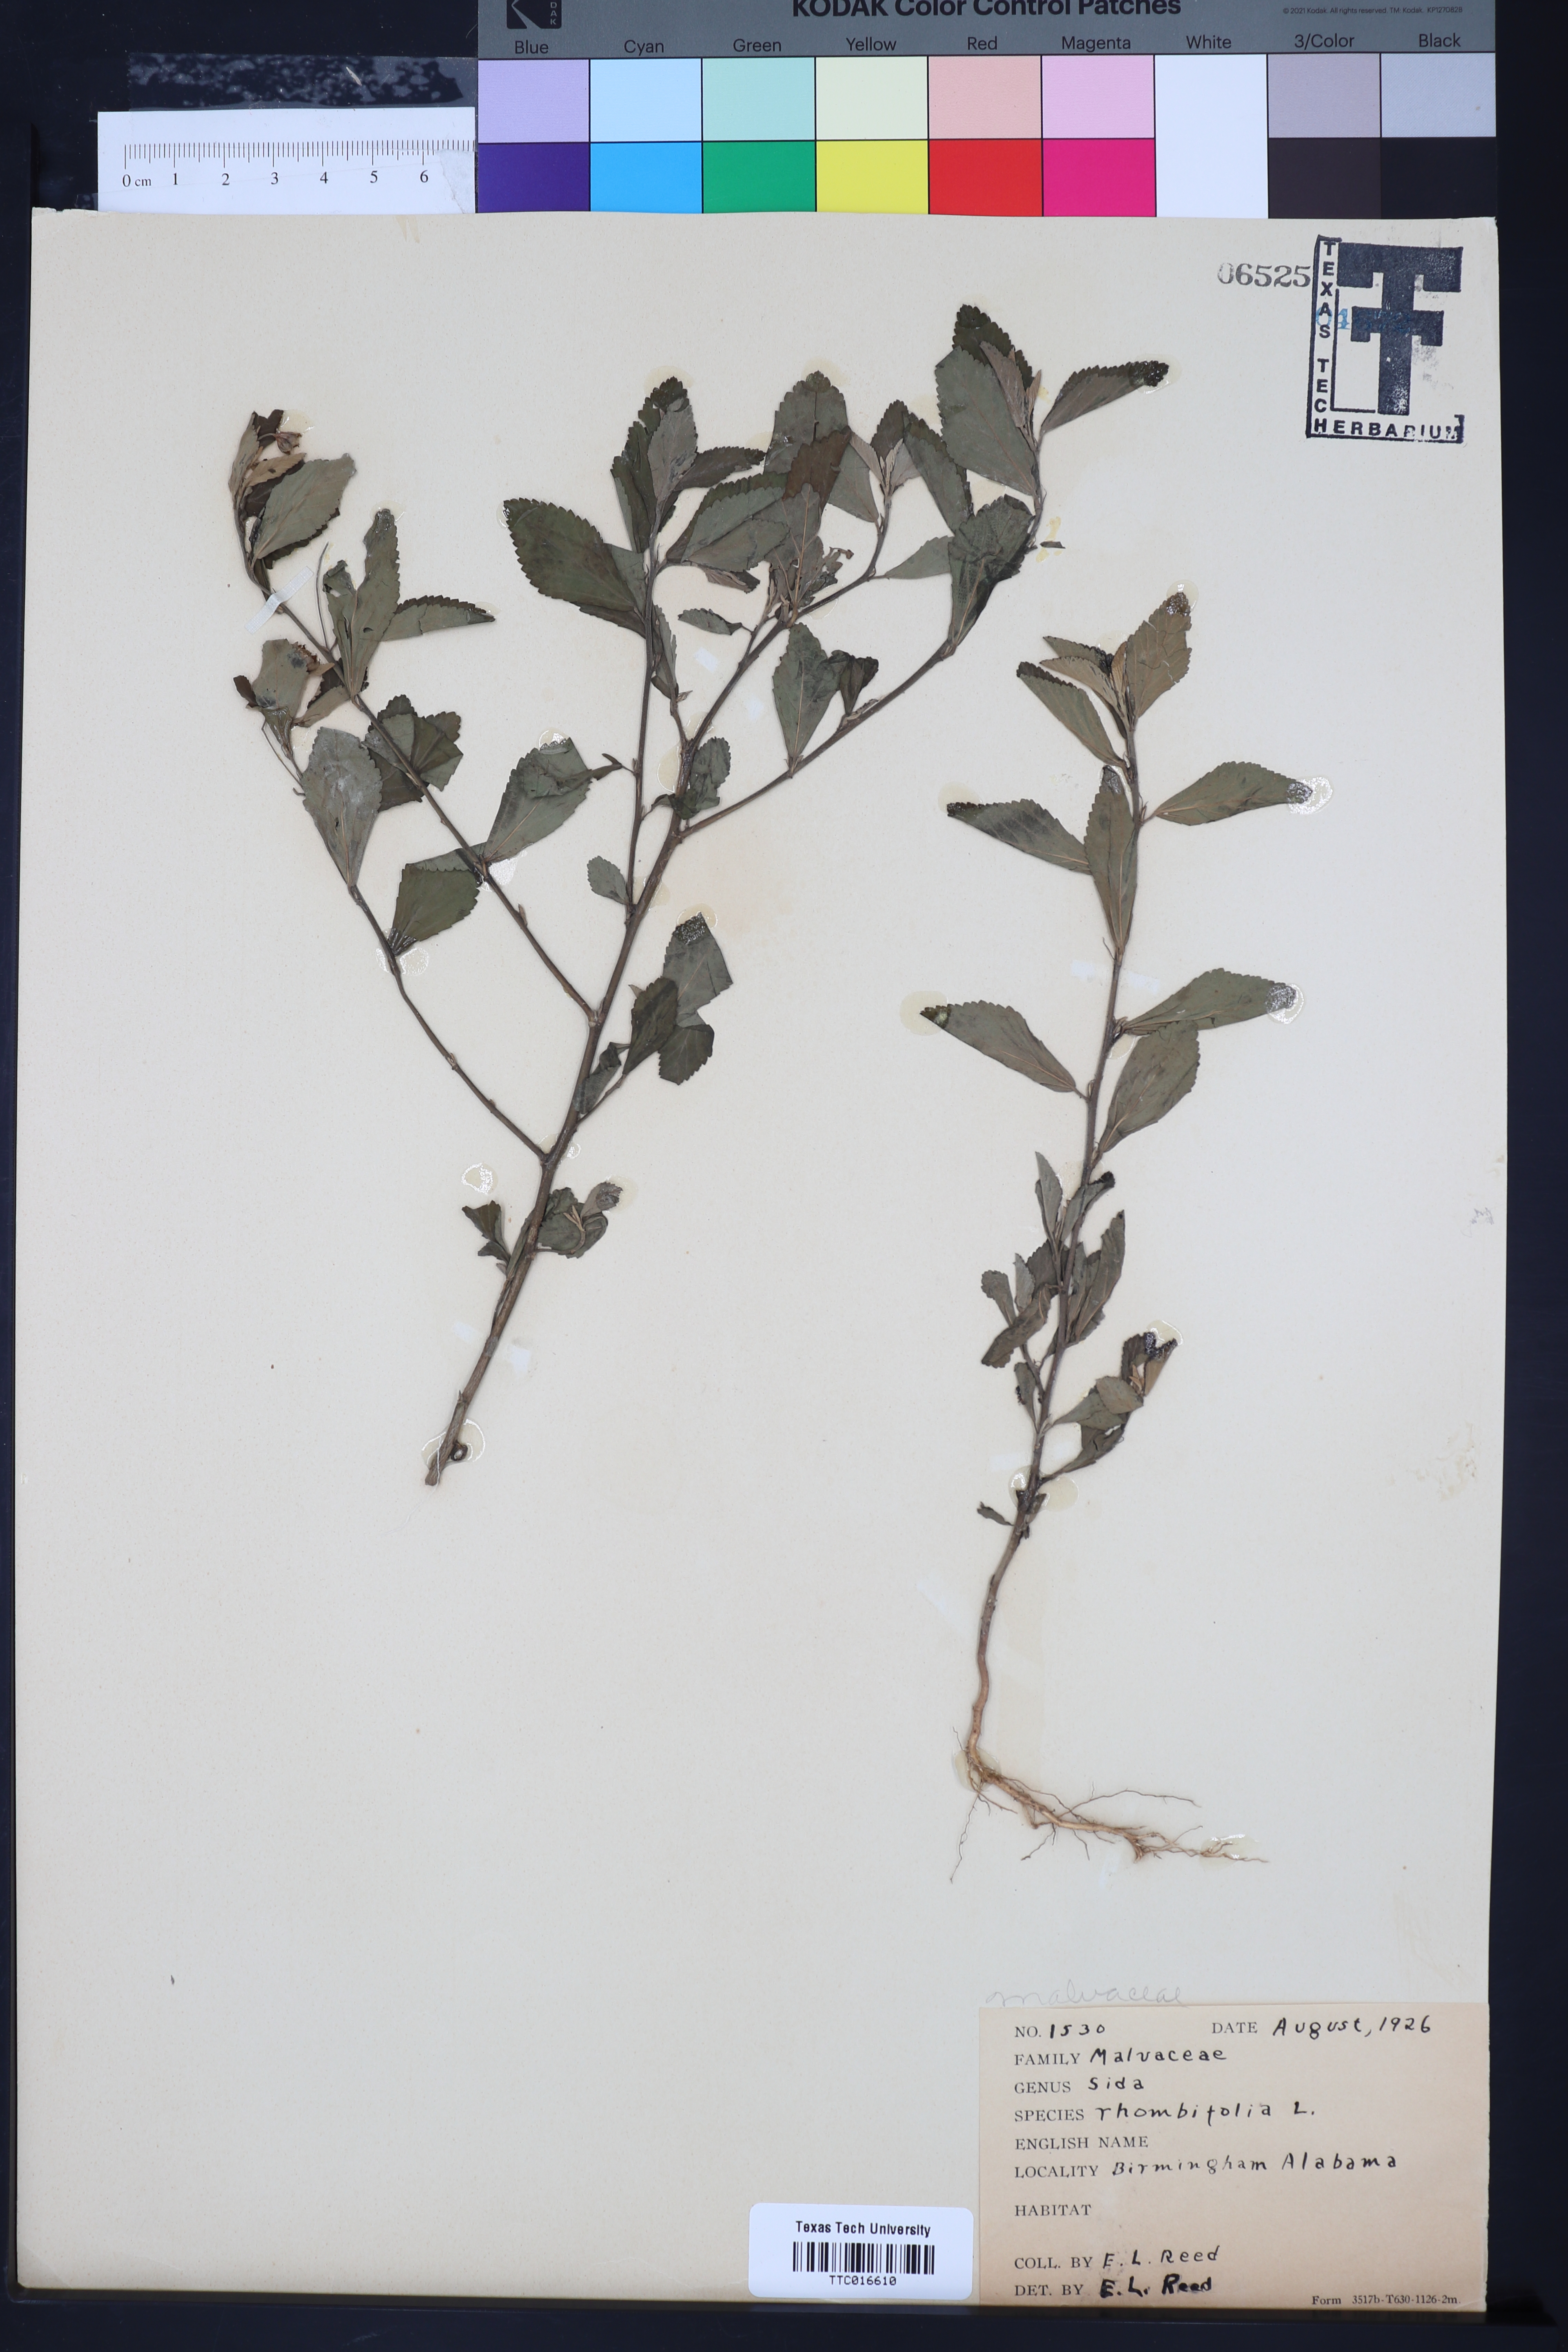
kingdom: Plantae
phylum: Tracheophyta
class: Magnoliopsida
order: Malvales
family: Malvaceae
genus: Sida
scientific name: Sida rhombifolia
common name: Queensland-hemp
